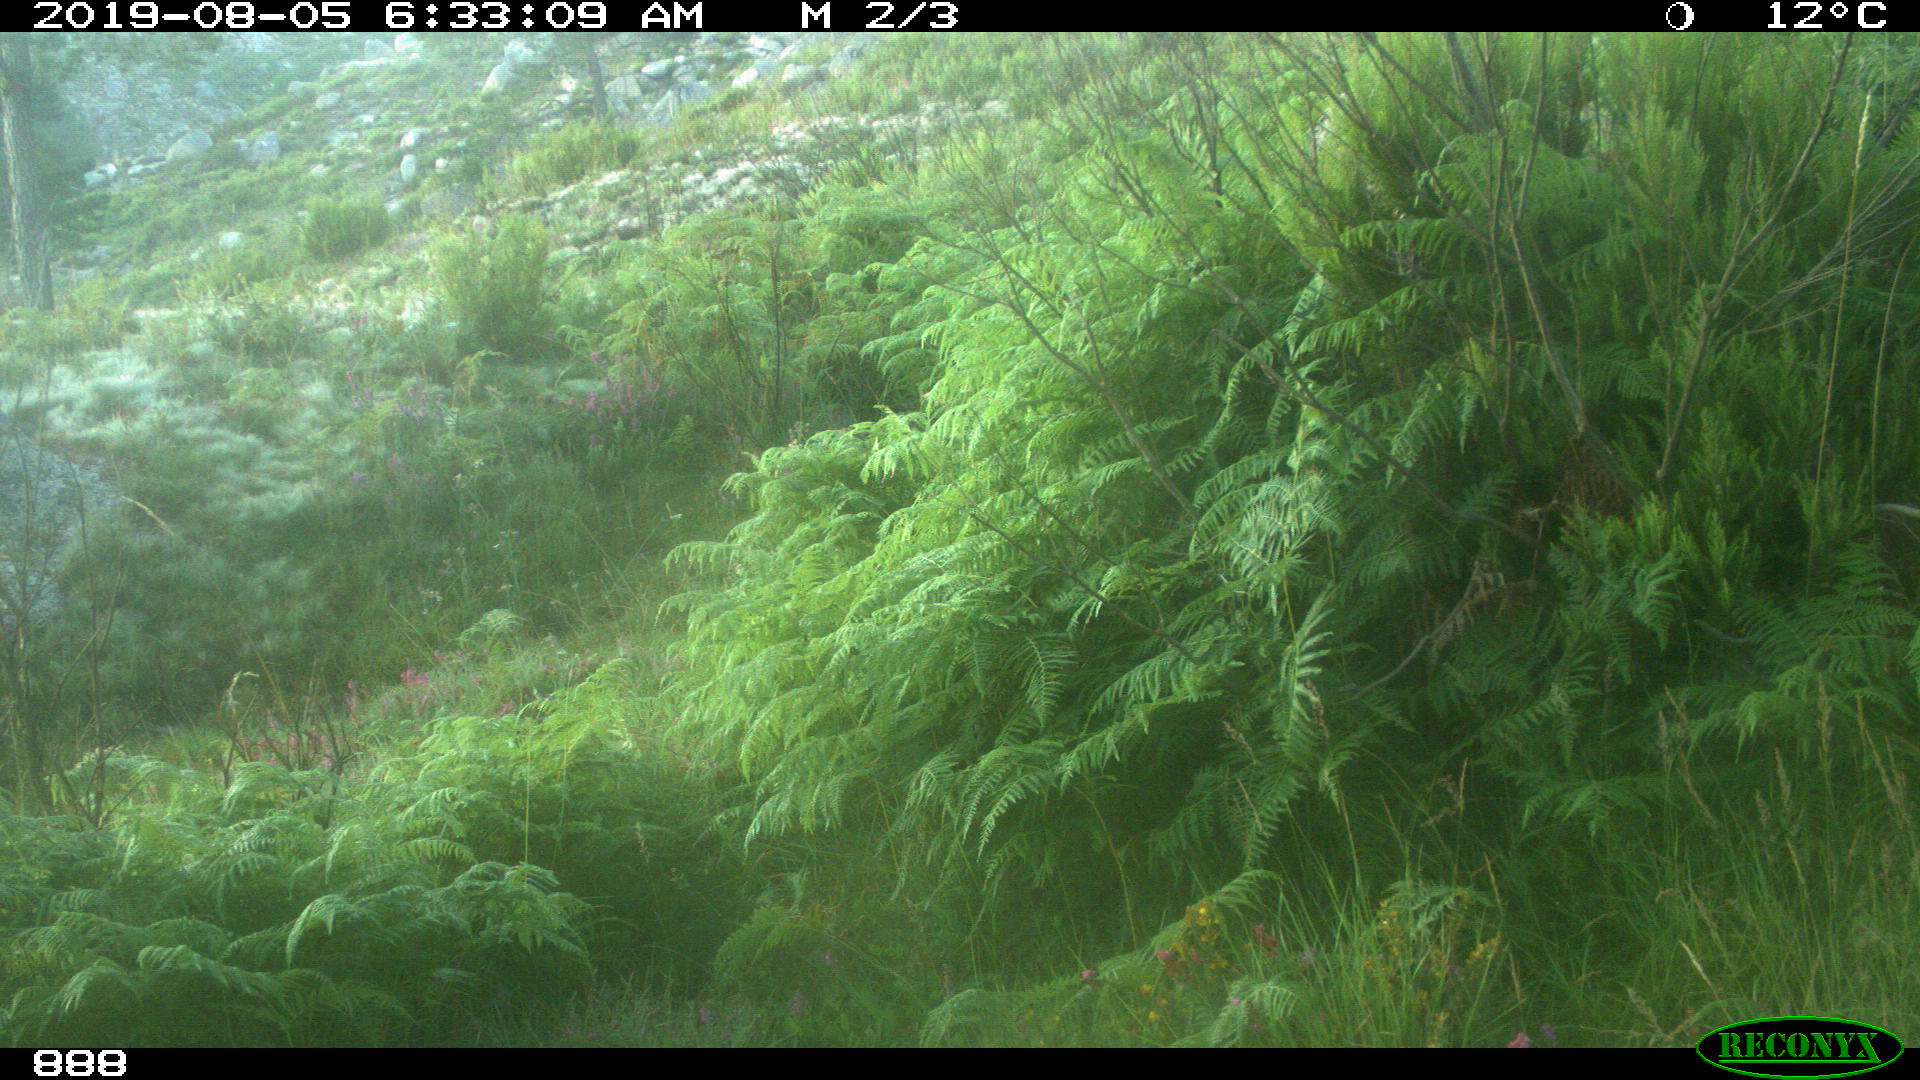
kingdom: Animalia
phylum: Chordata
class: Mammalia
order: Artiodactyla
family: Cervidae
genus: Capreolus
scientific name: Capreolus capreolus
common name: Western roe deer
